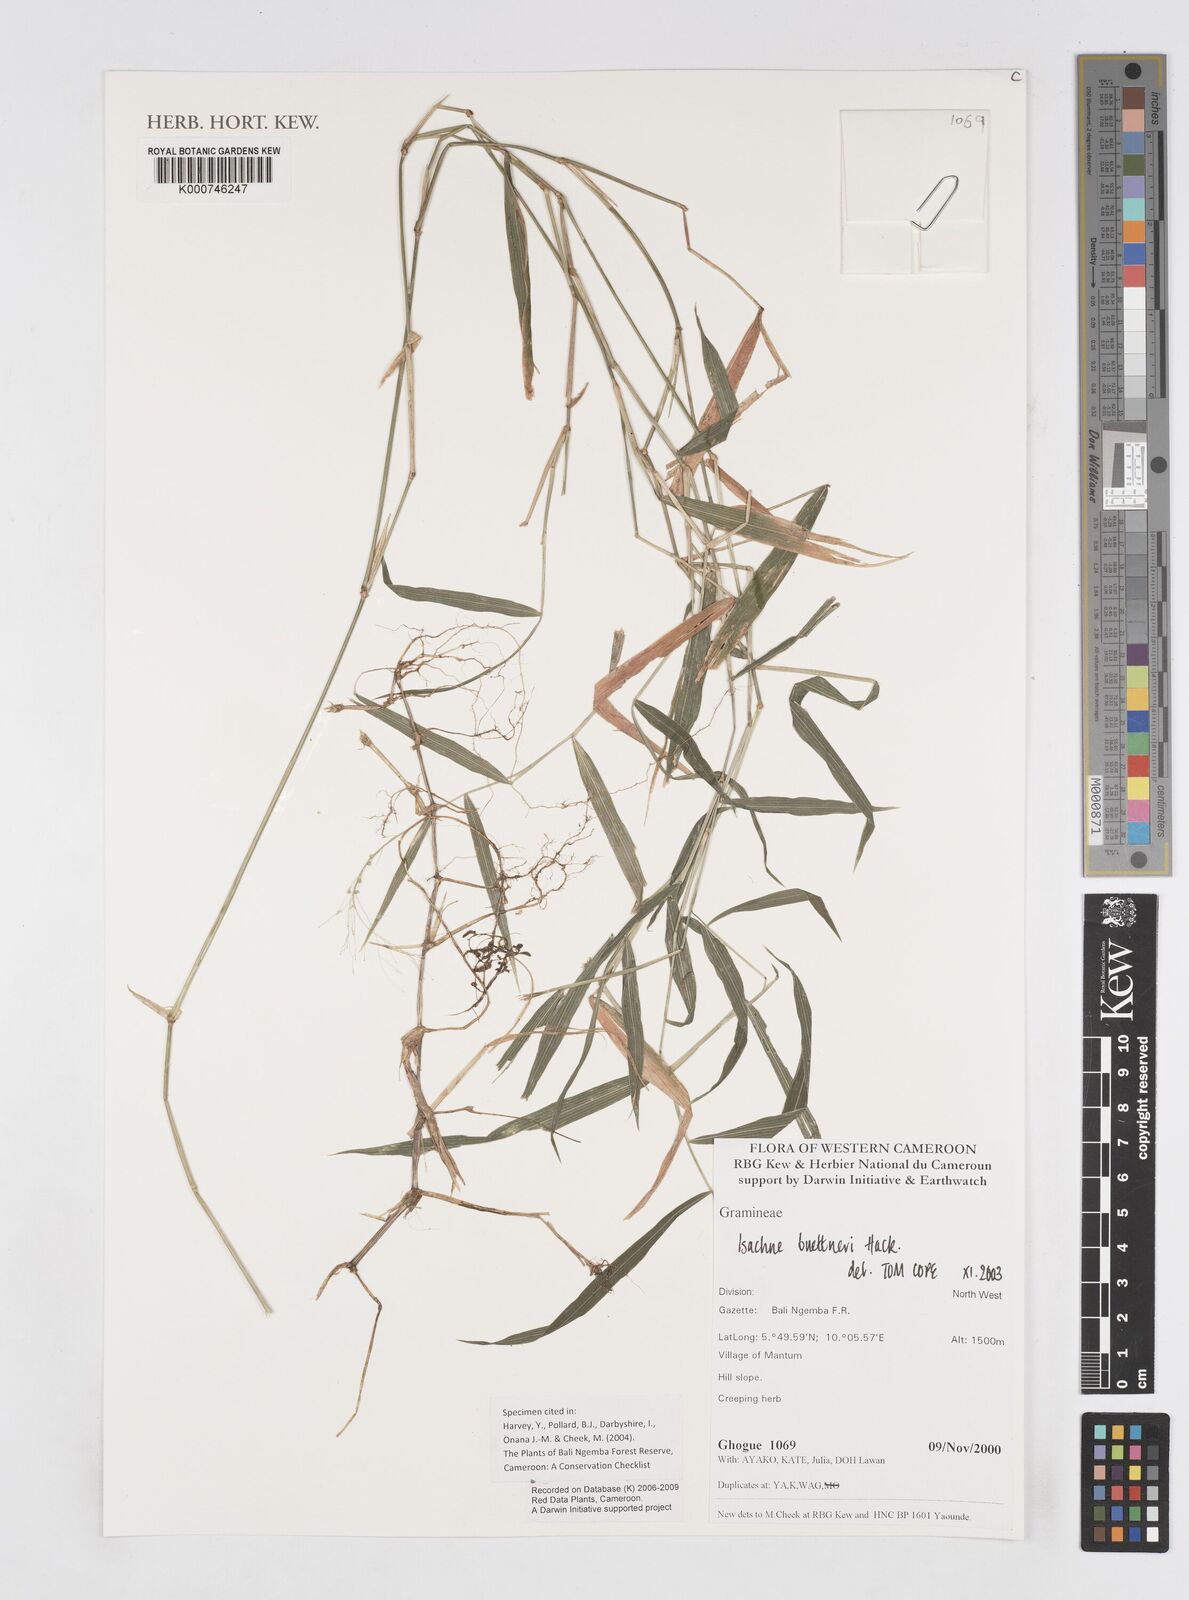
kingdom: Plantae
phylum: Tracheophyta
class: Liliopsida
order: Poales
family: Poaceae
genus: Isachne
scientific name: Isachne albens
